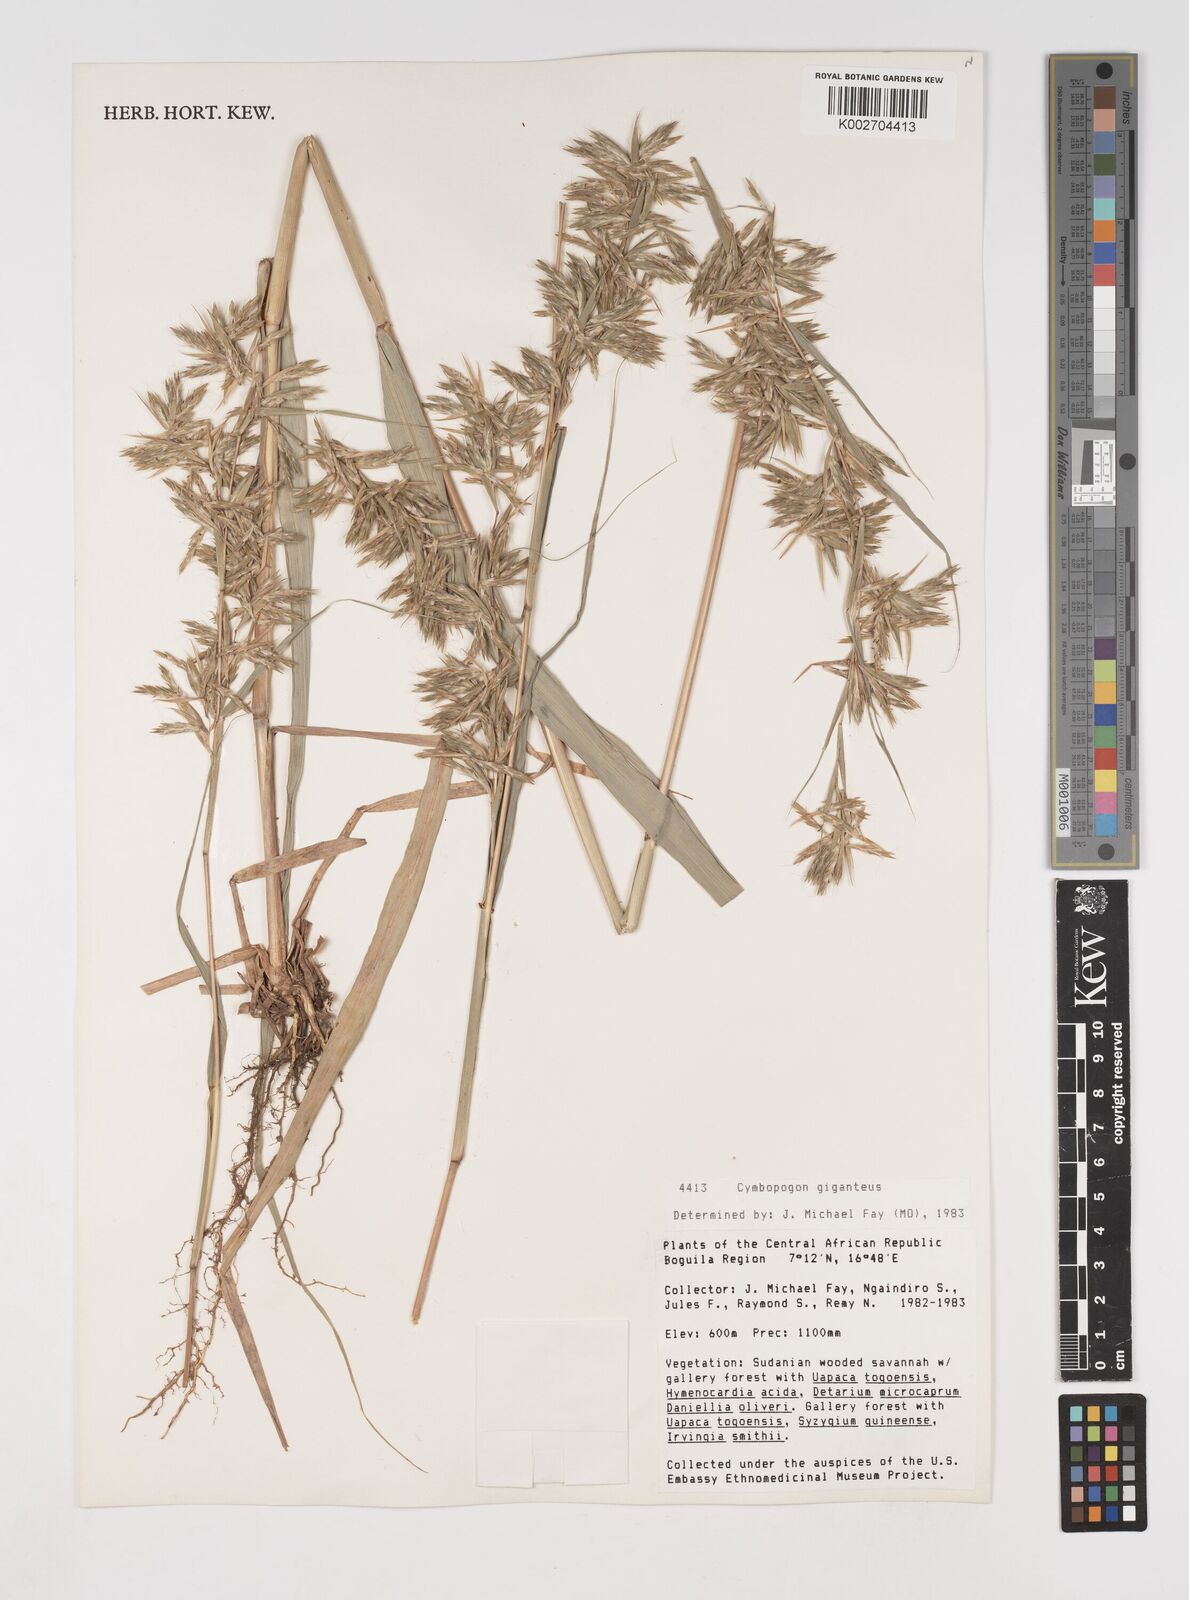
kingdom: Plantae
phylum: Tracheophyta
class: Liliopsida
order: Poales
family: Poaceae
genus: Cymbopogon
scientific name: Cymbopogon giganteus
